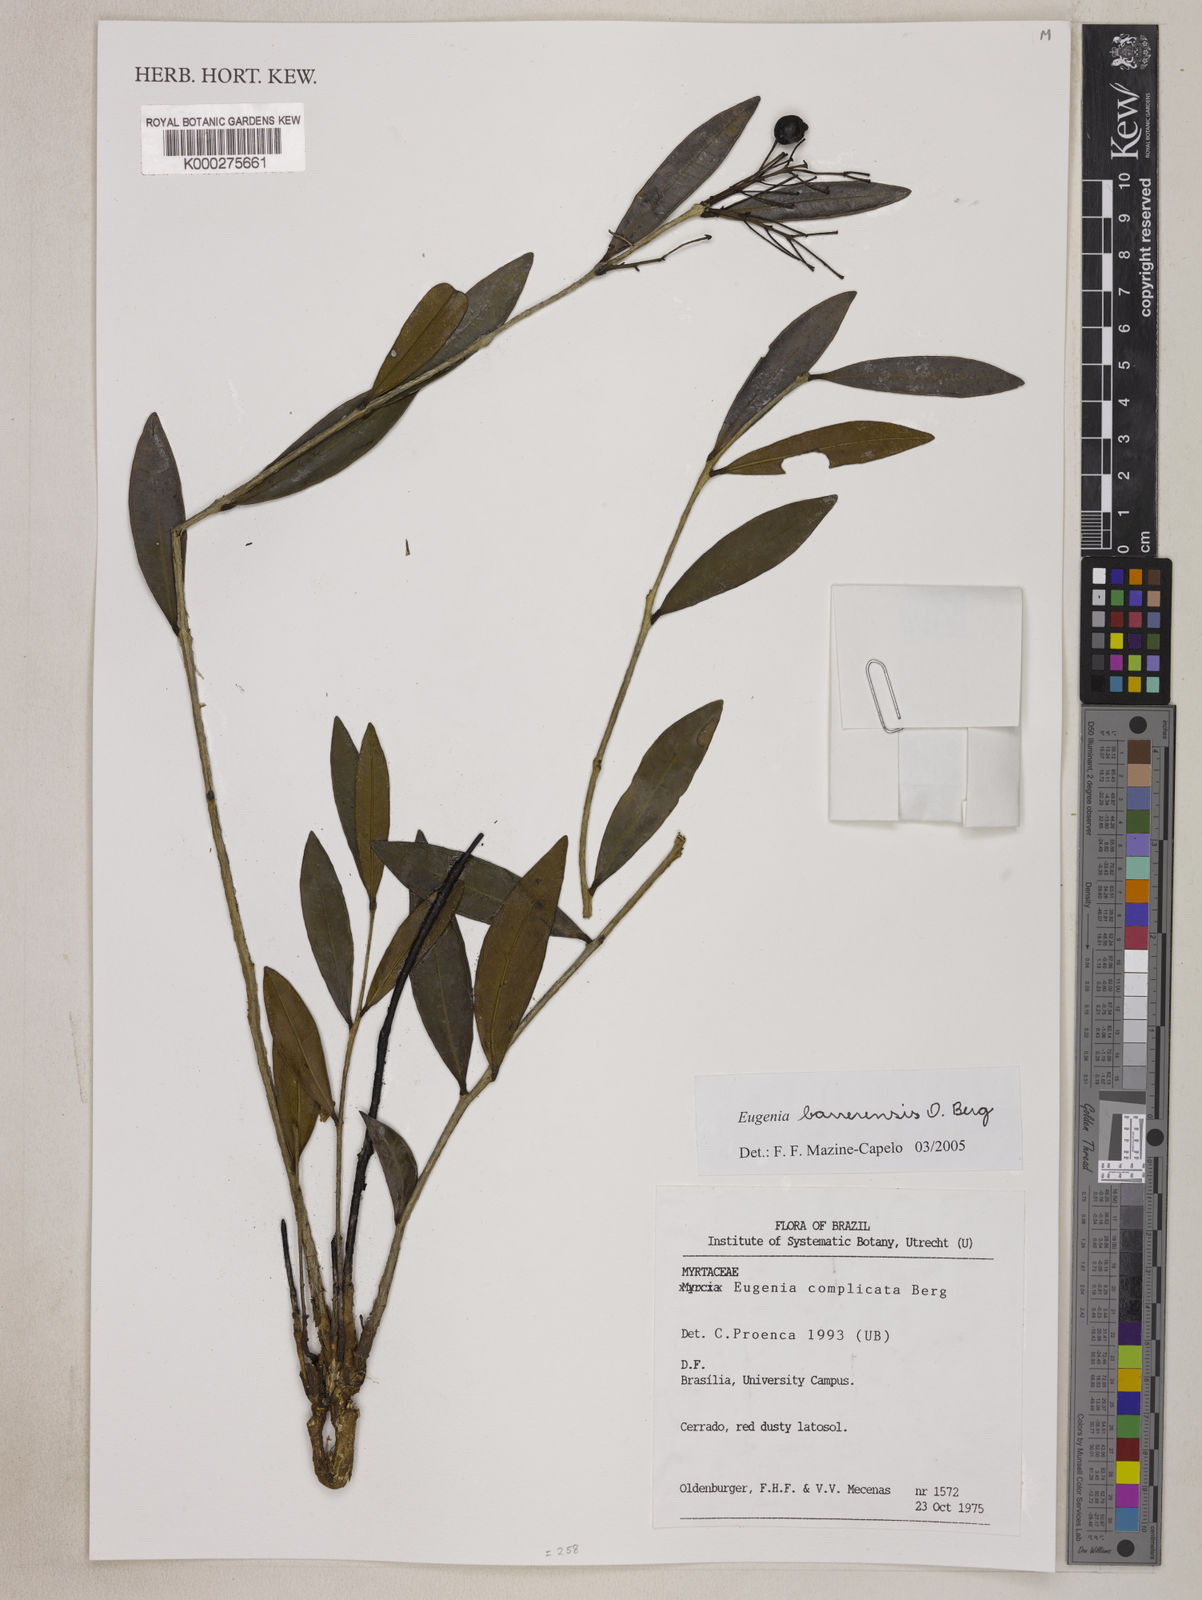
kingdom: Plantae
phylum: Tracheophyta
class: Magnoliopsida
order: Myrtales
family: Myrtaceae
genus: Eugenia
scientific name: Eugenia complicata
